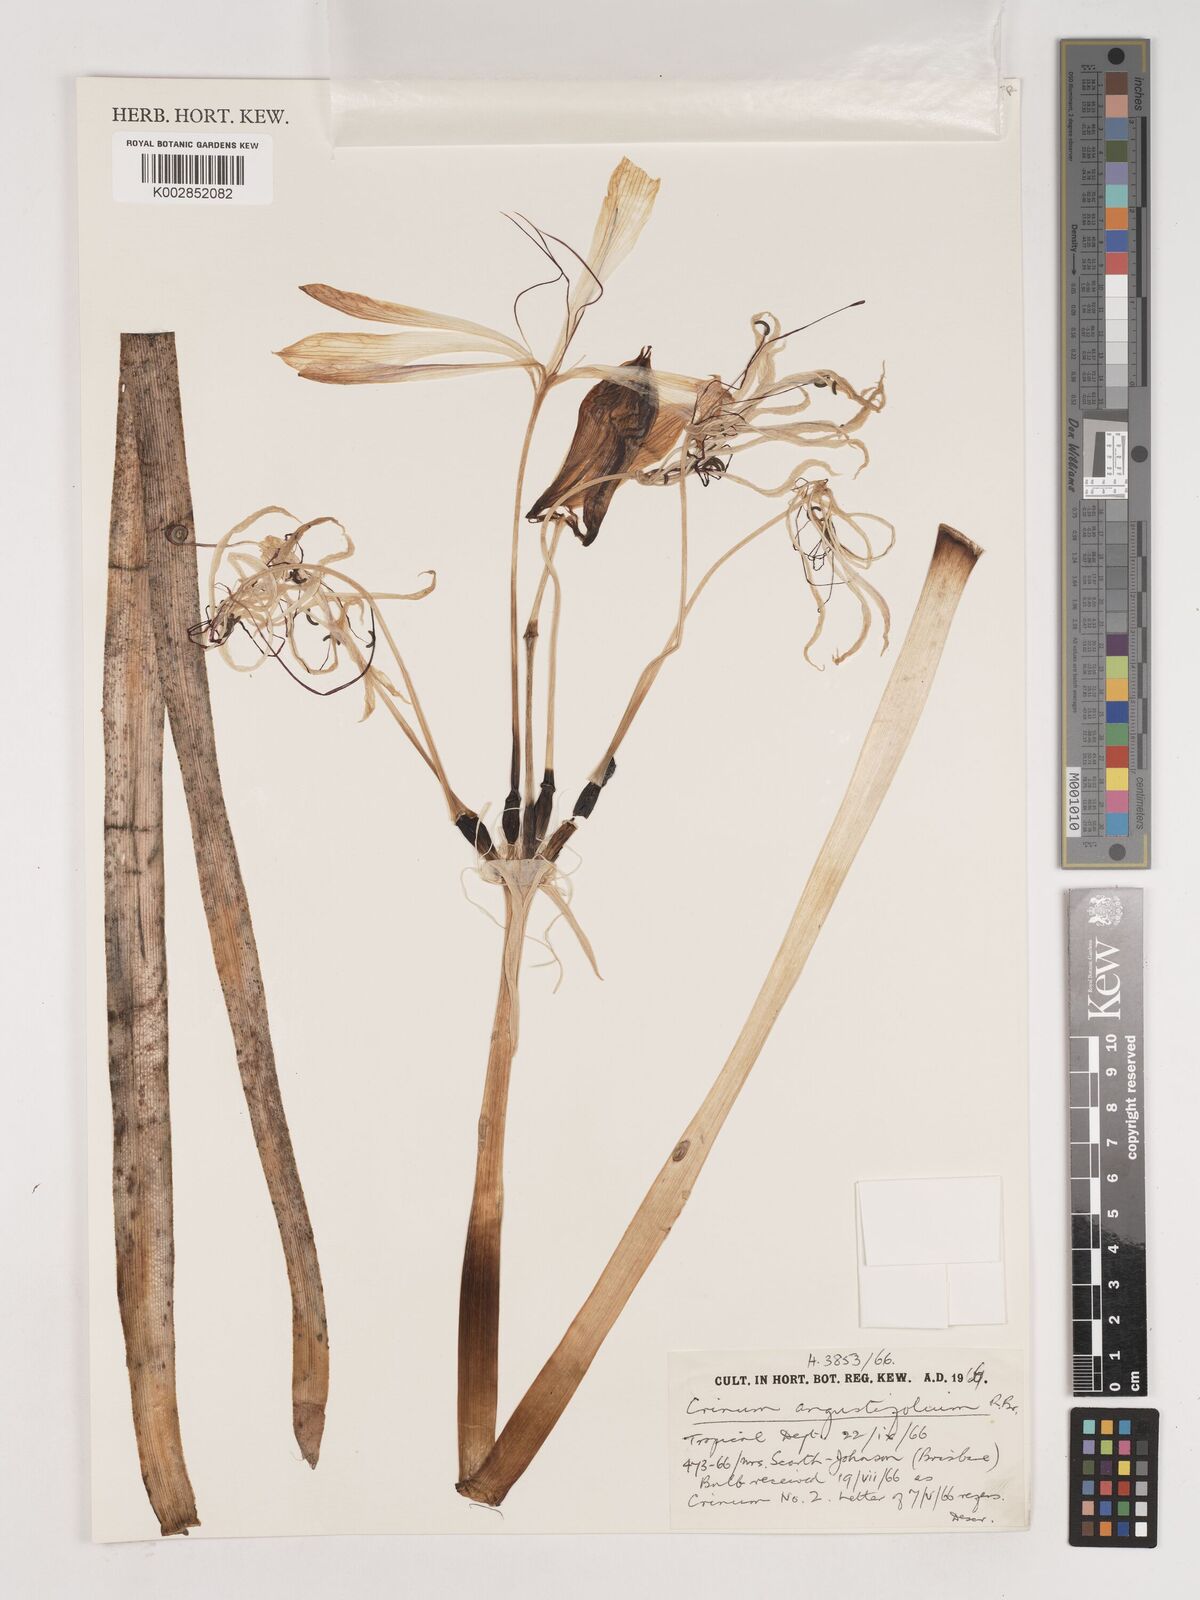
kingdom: Plantae
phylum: Tracheophyta
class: Liliopsida
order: Asparagales
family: Amaryllidaceae
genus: Crinum
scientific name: Crinum arenarium
